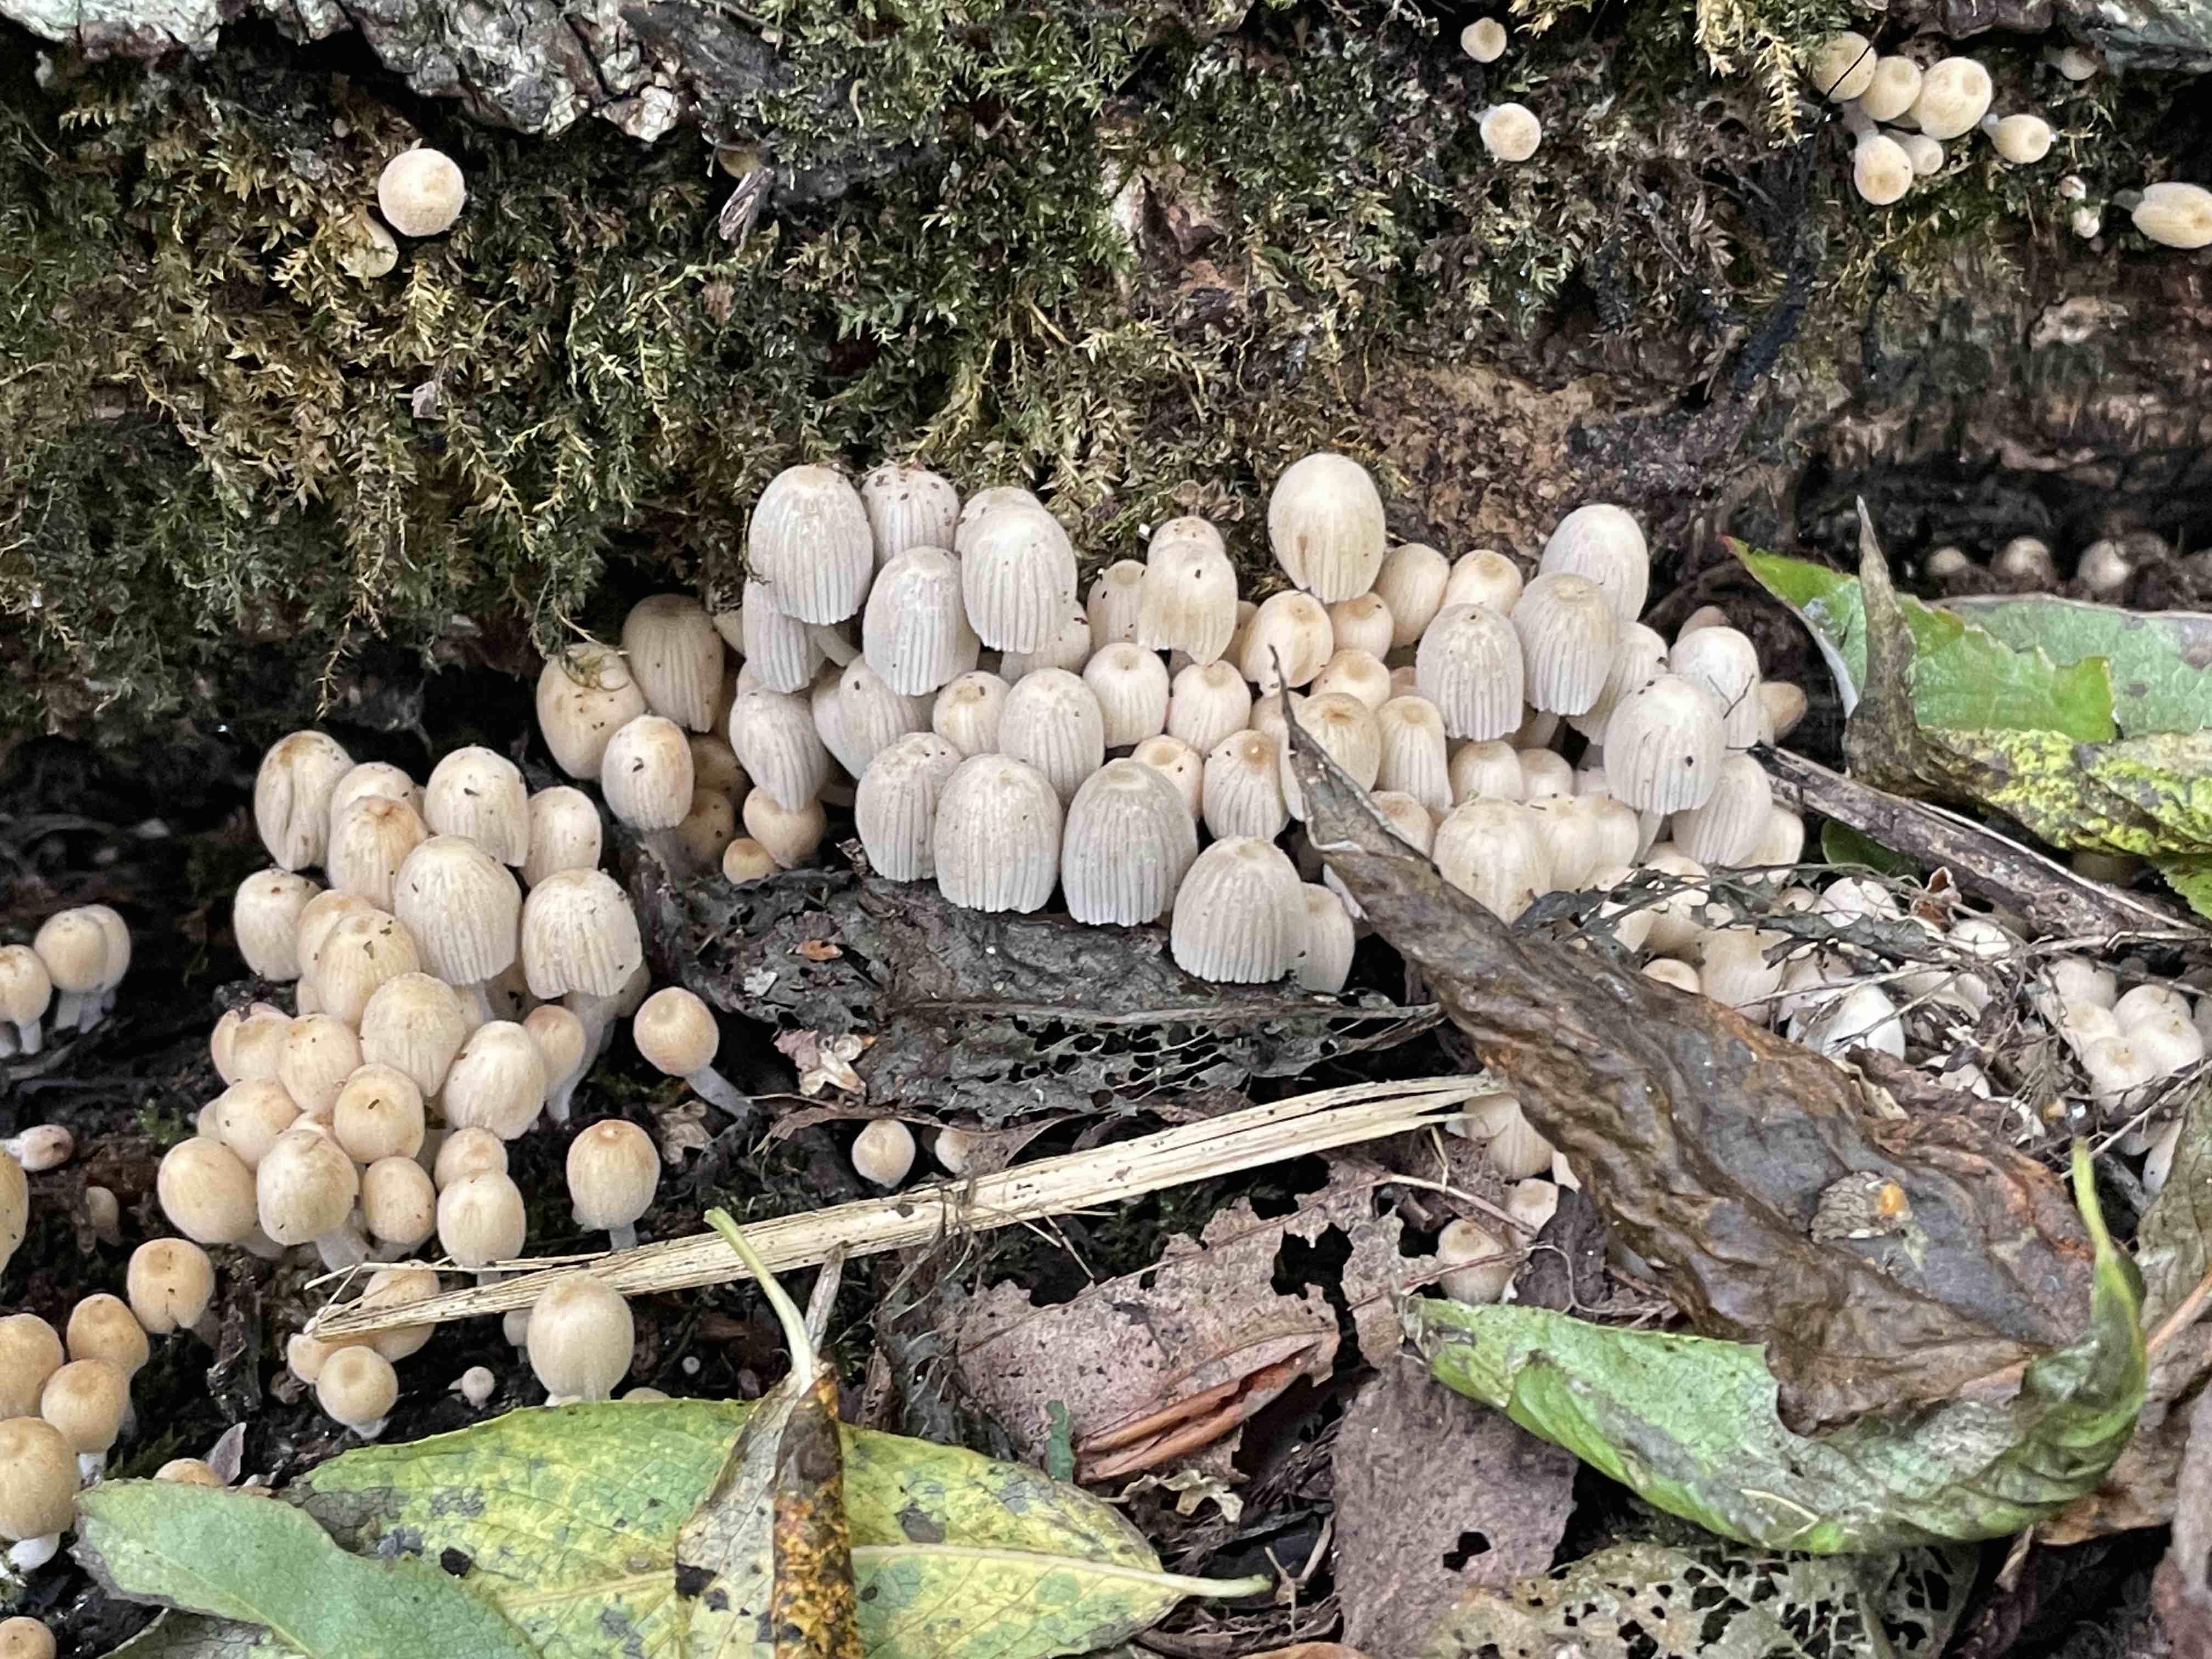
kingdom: Fungi
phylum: Basidiomycota
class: Agaricomycetes
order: Agaricales
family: Psathyrellaceae
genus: Coprinellus
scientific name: Coprinellus disseminatus
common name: bredsået blækhat
